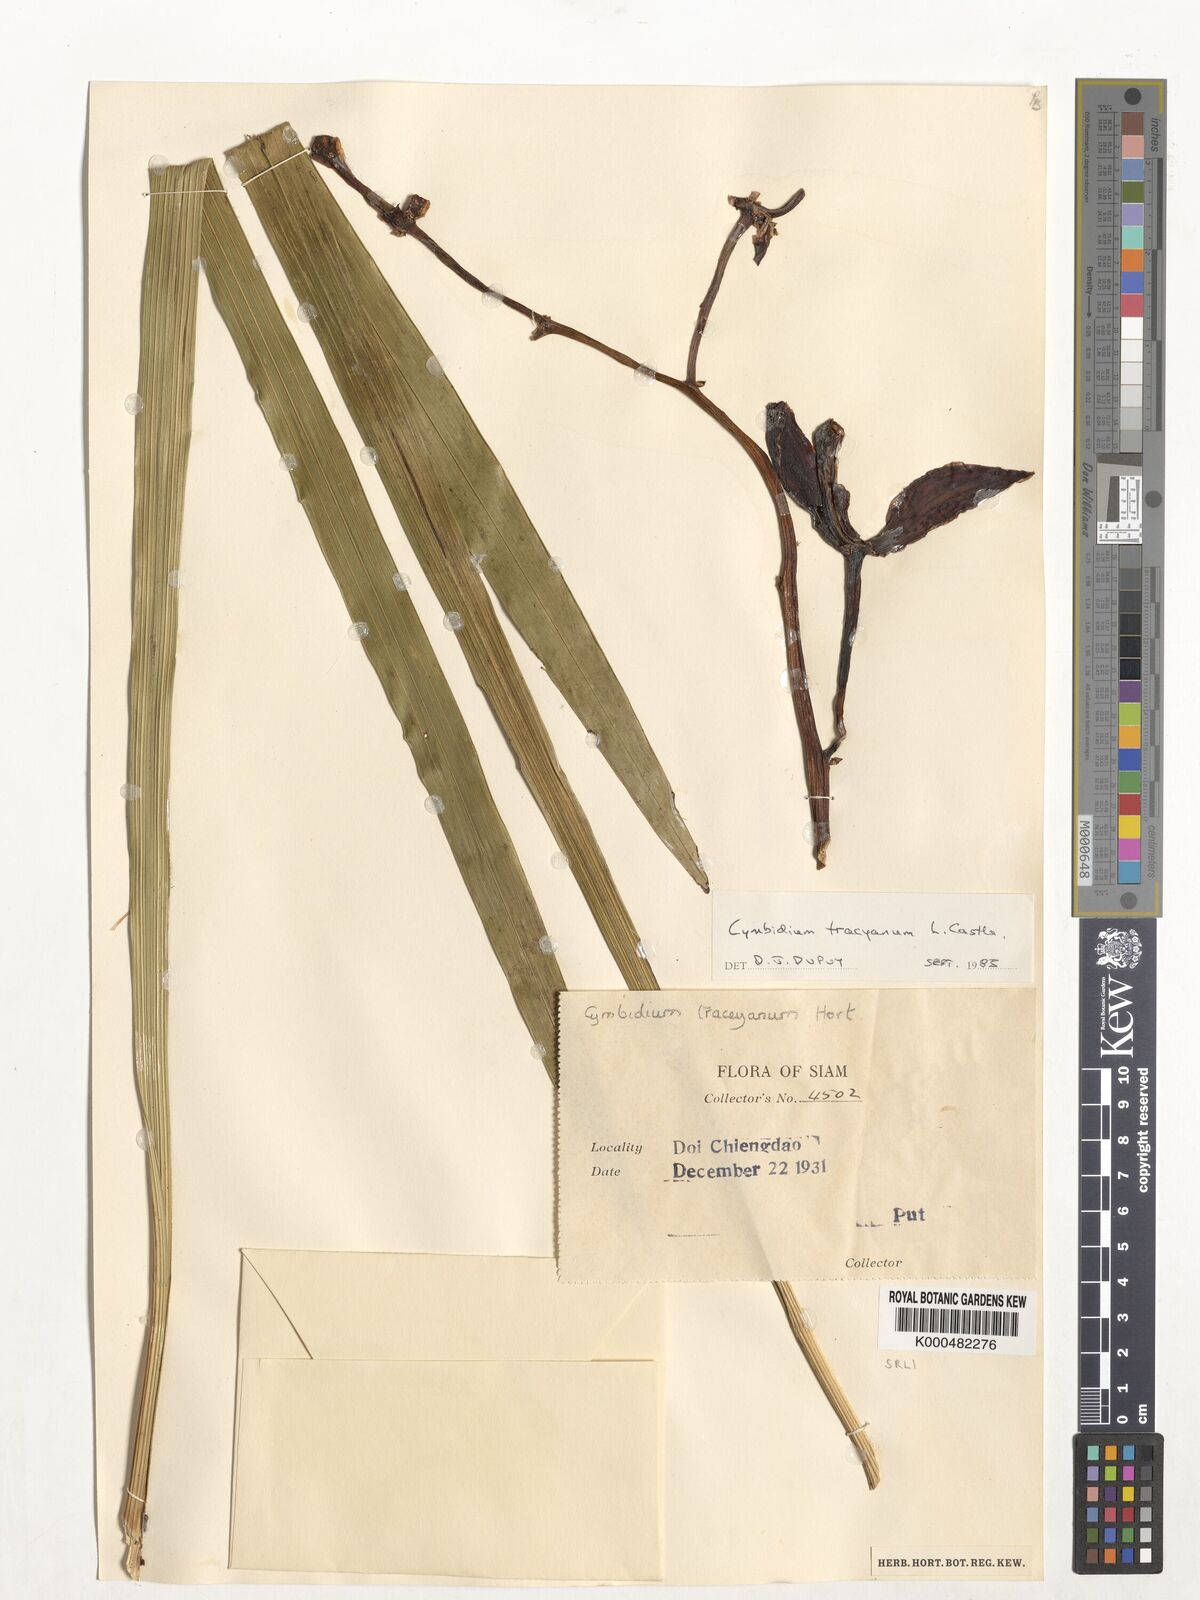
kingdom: Plantae
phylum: Tracheophyta
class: Liliopsida
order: Asparagales
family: Orchidaceae
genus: Cymbidium
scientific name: Cymbidium
